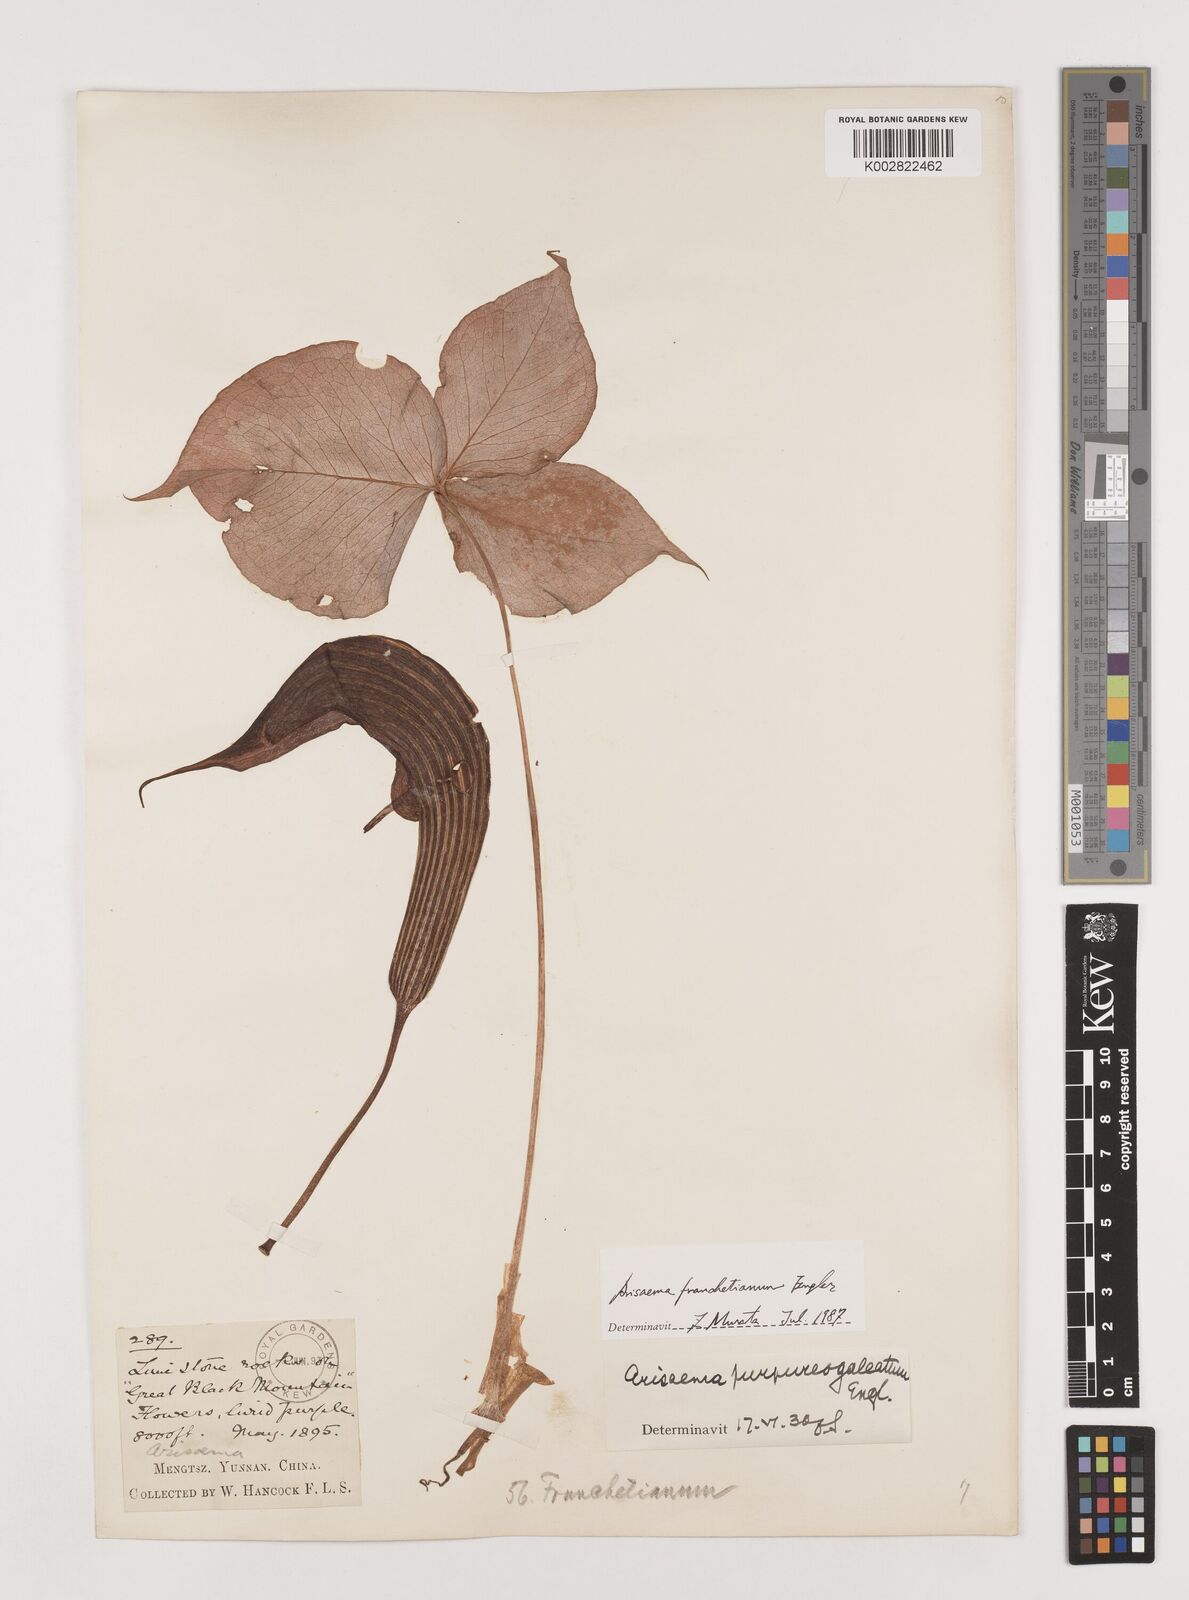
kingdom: Plantae
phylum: Tracheophyta
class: Liliopsida
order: Alismatales
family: Araceae
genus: Arisaema
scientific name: Arisaema franchetianum
